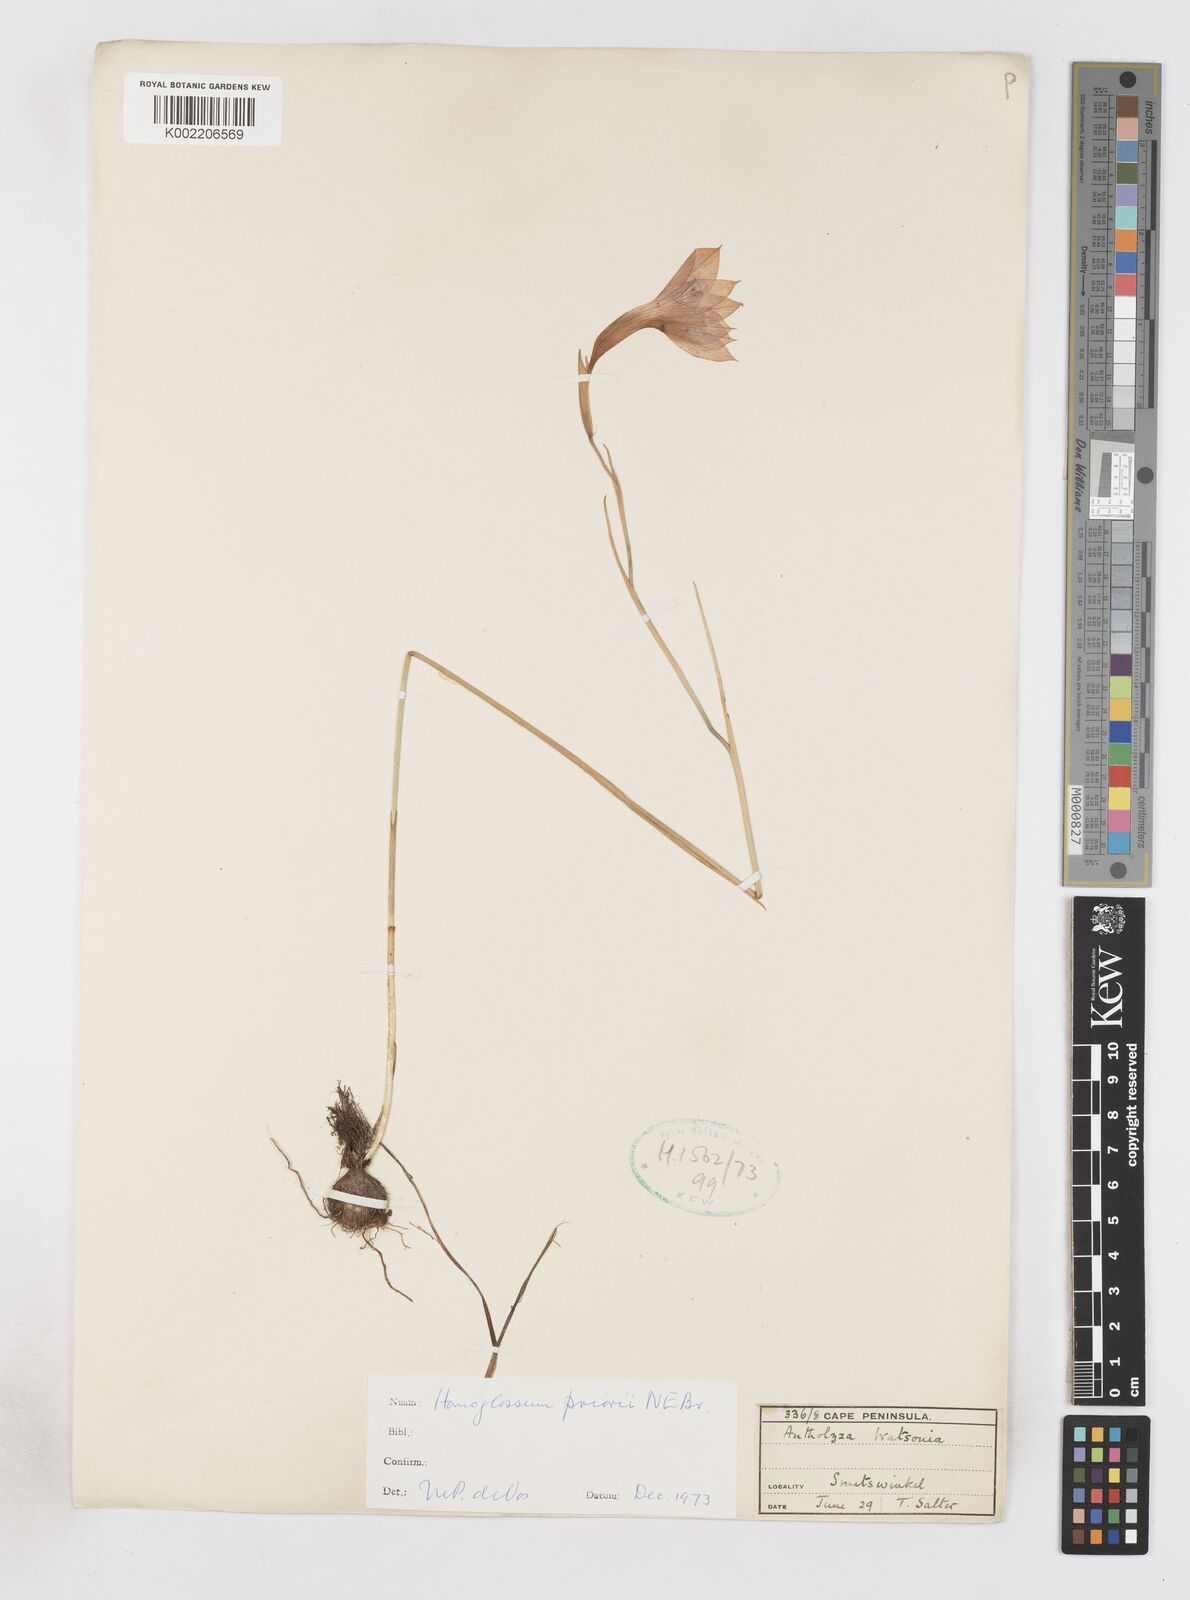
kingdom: Plantae
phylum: Tracheophyta
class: Liliopsida
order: Asparagales
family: Iridaceae
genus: Gladiolus
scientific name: Gladiolus priorii
